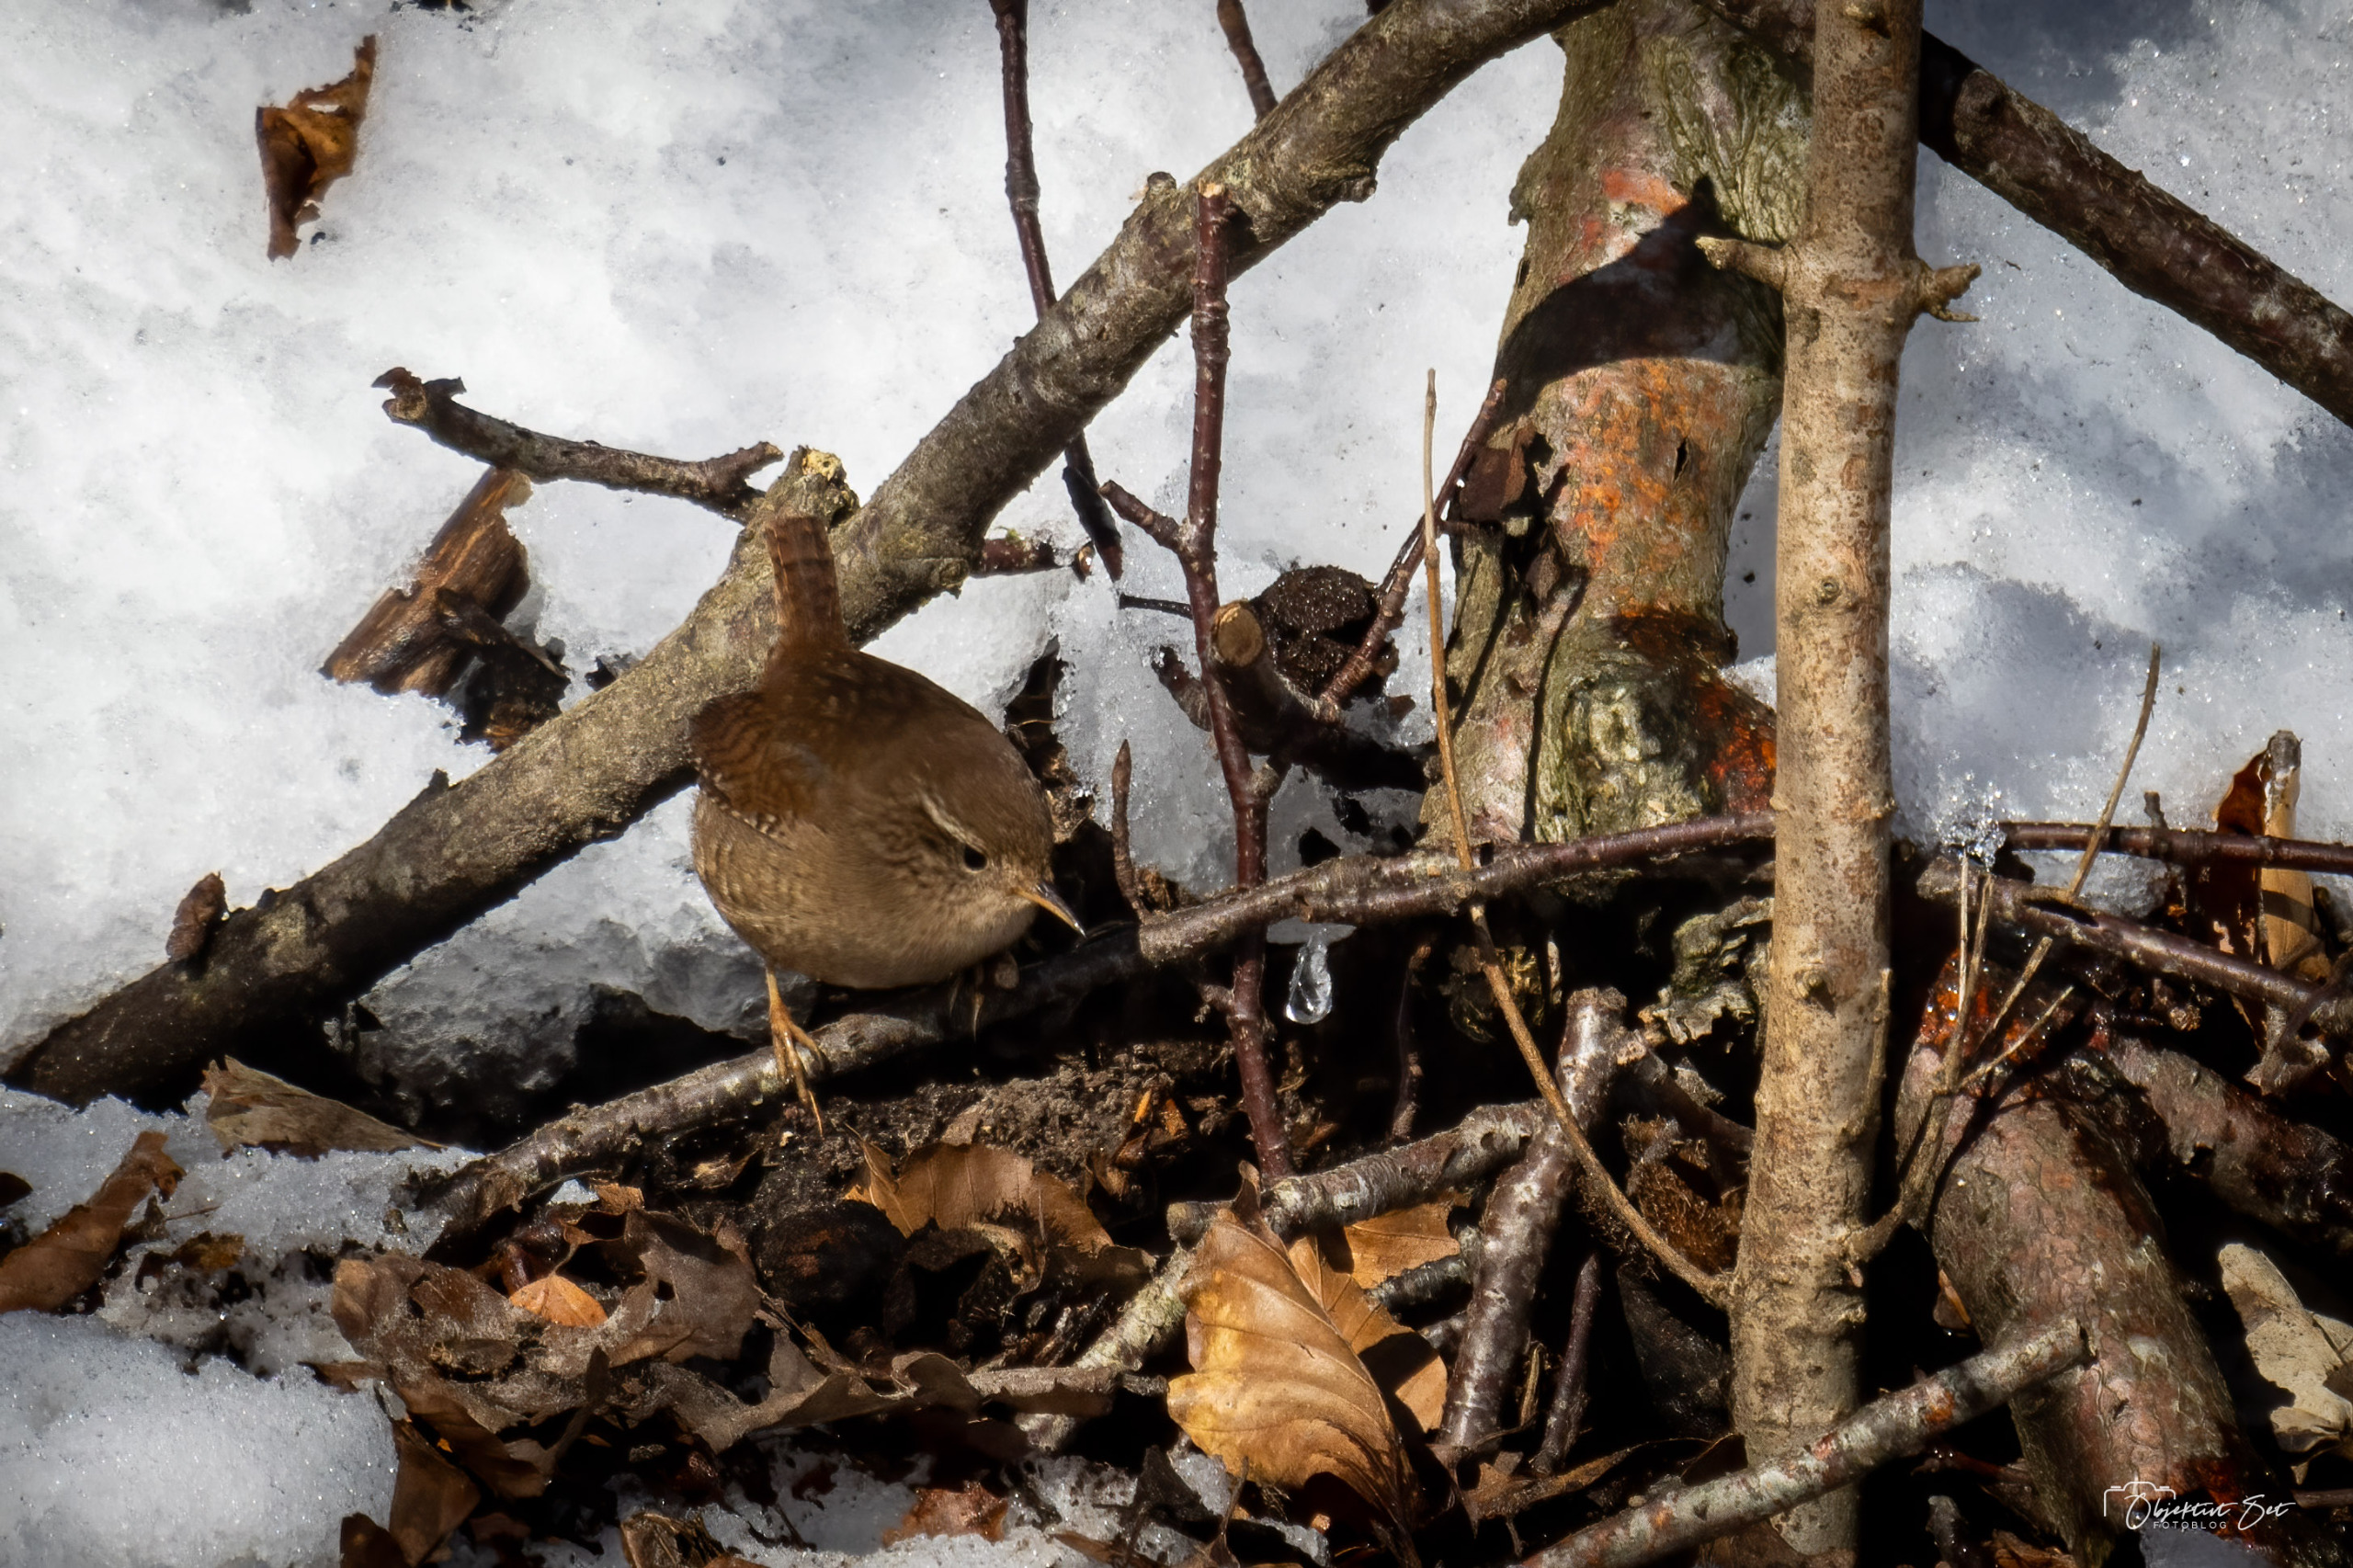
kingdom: Animalia
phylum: Chordata
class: Aves
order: Passeriformes
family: Troglodytidae
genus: Troglodytes
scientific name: Troglodytes troglodytes
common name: Gærdesmutte
